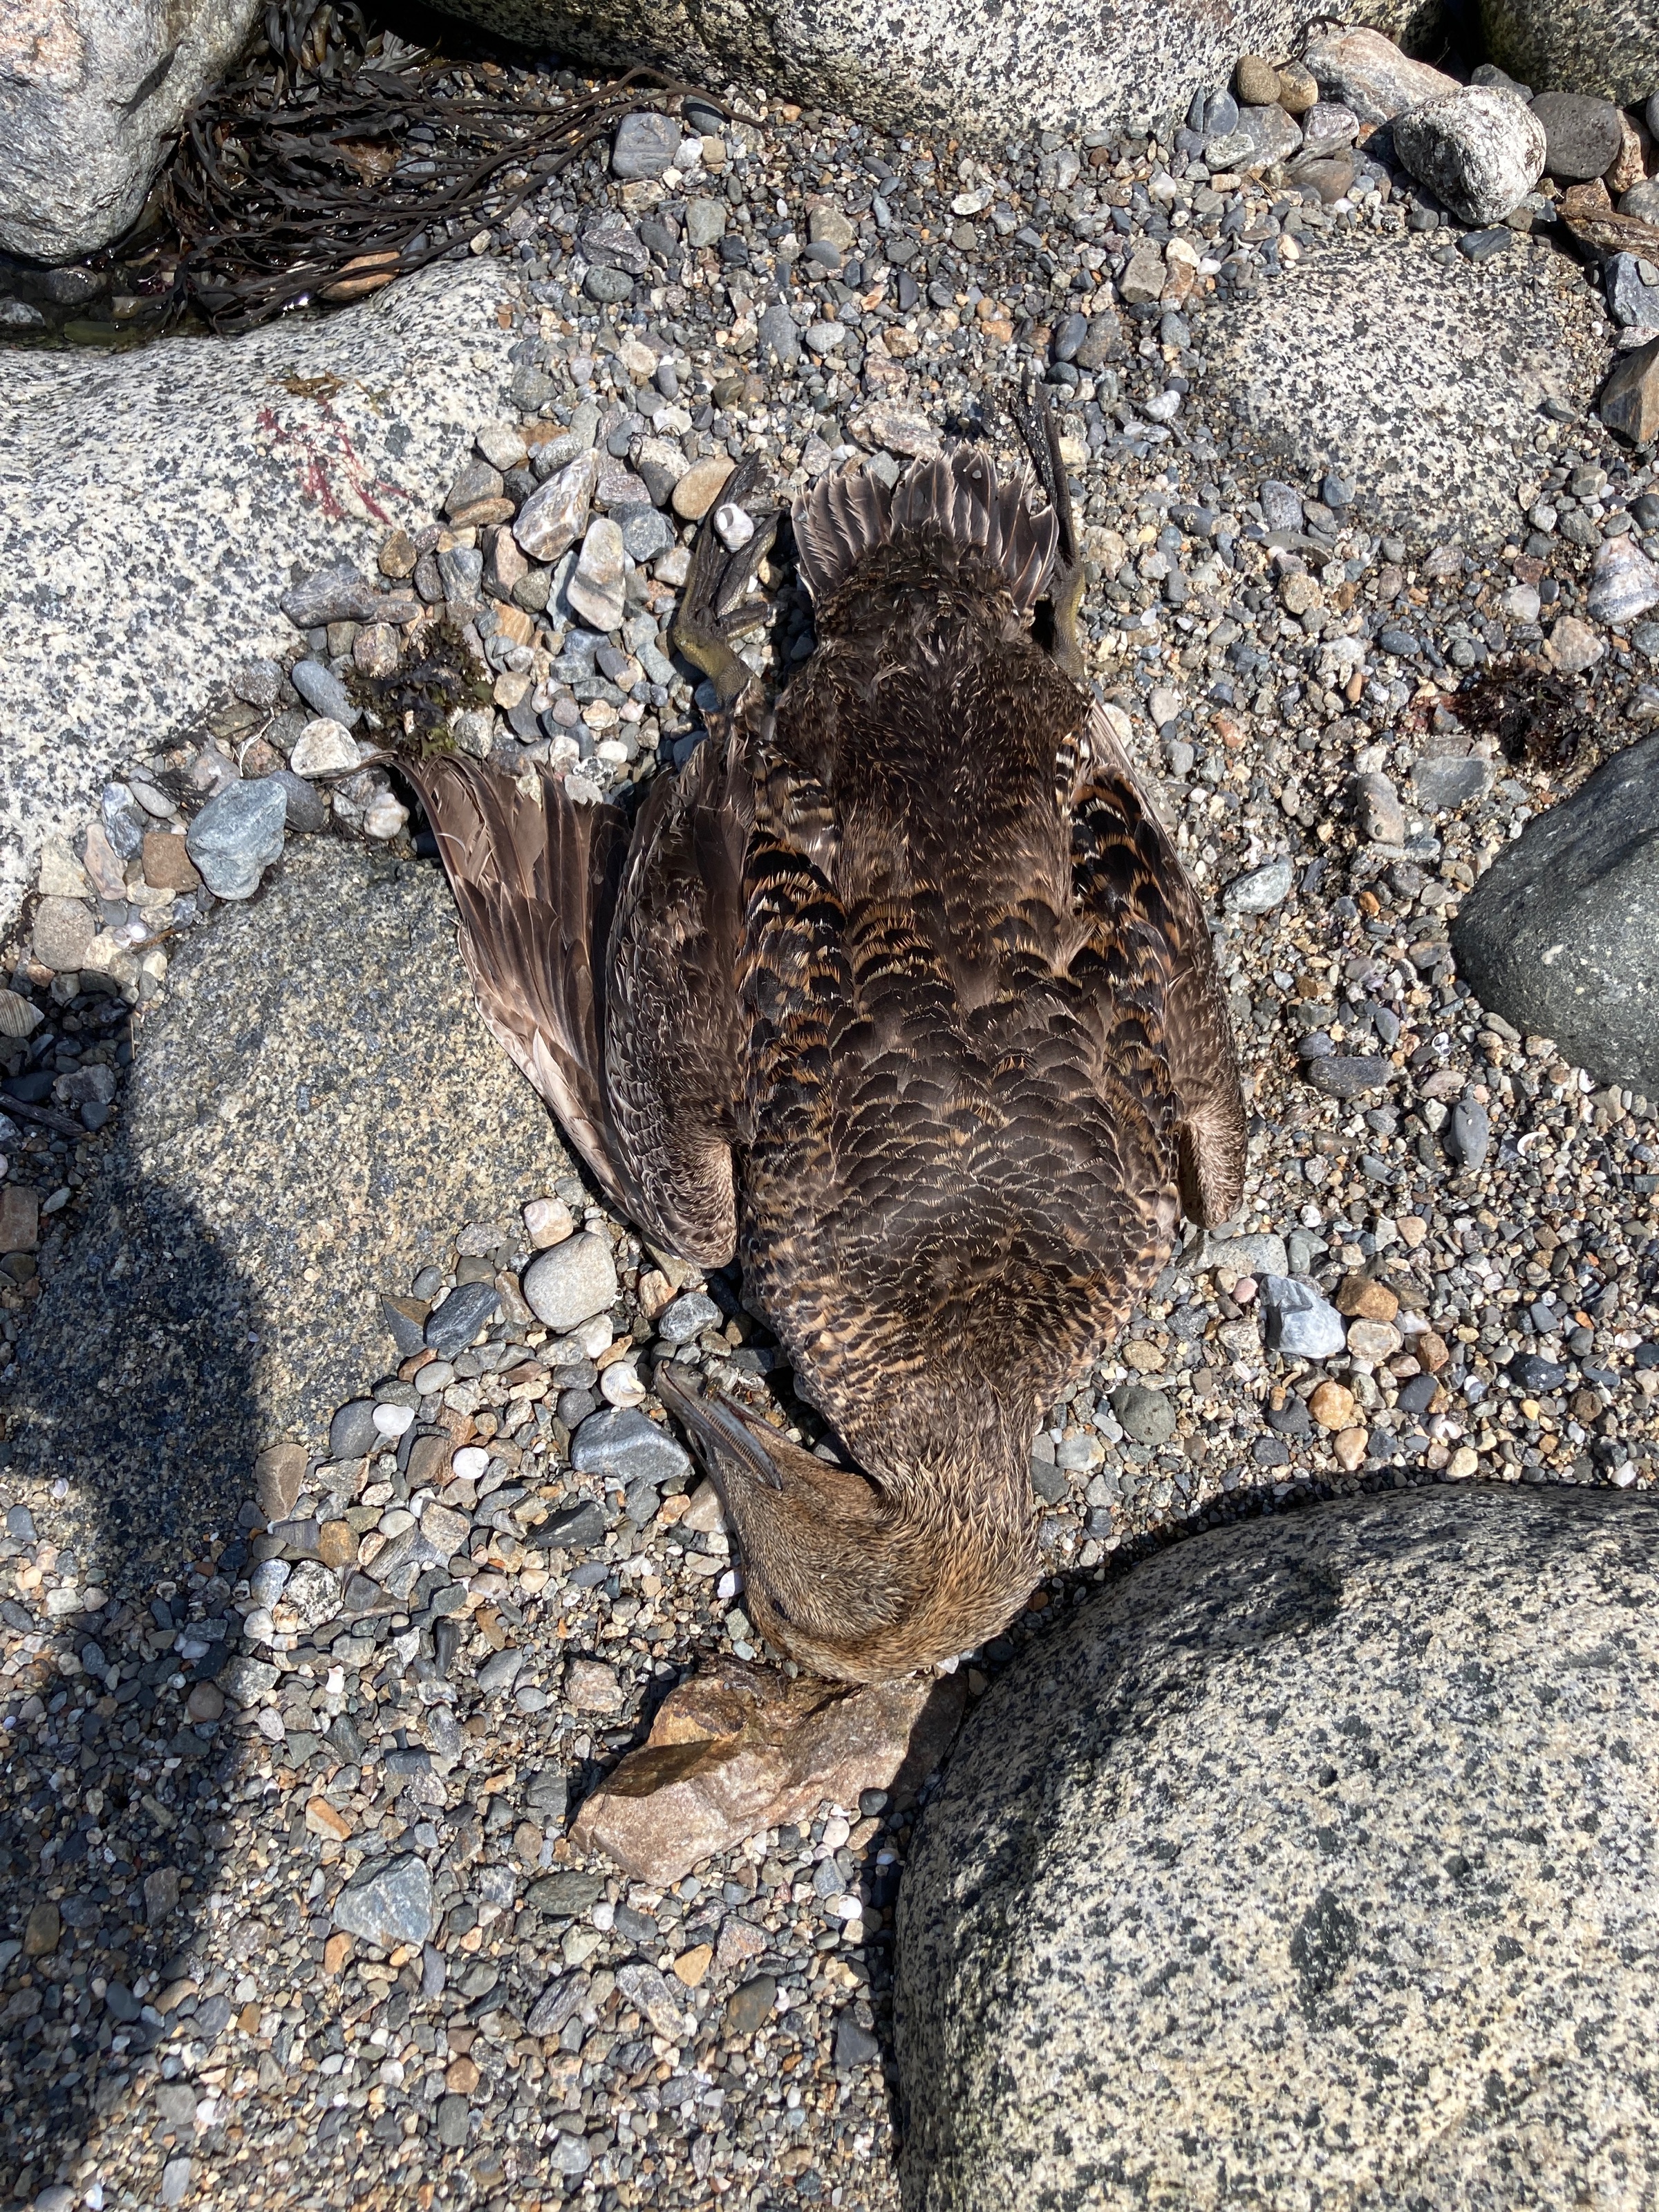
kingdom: Animalia
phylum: Chordata
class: Aves
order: Anseriformes
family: Anatidae
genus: Camptorhynchus
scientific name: Camptorhynchus labradorius
